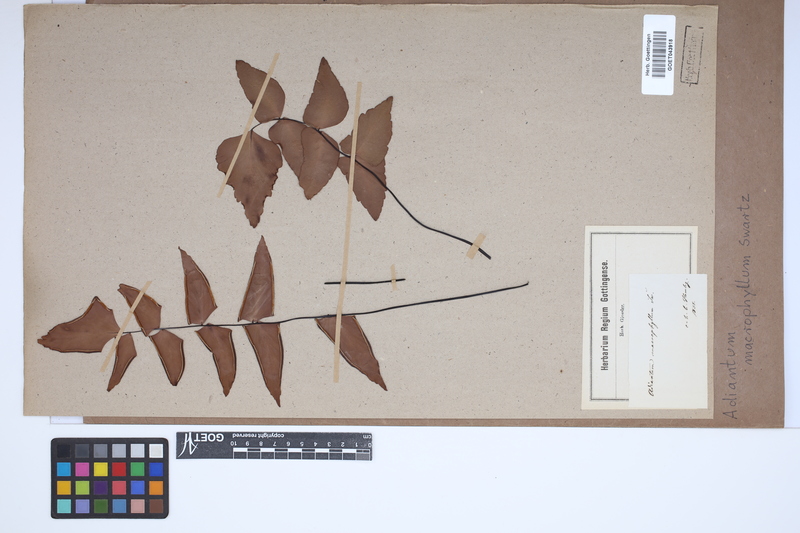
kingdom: Plantae
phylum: Tracheophyta
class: Polypodiopsida
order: Polypodiales
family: Pteridaceae
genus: Adiantum
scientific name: Adiantum macrophyllum
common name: Largeleaf maidenhair
